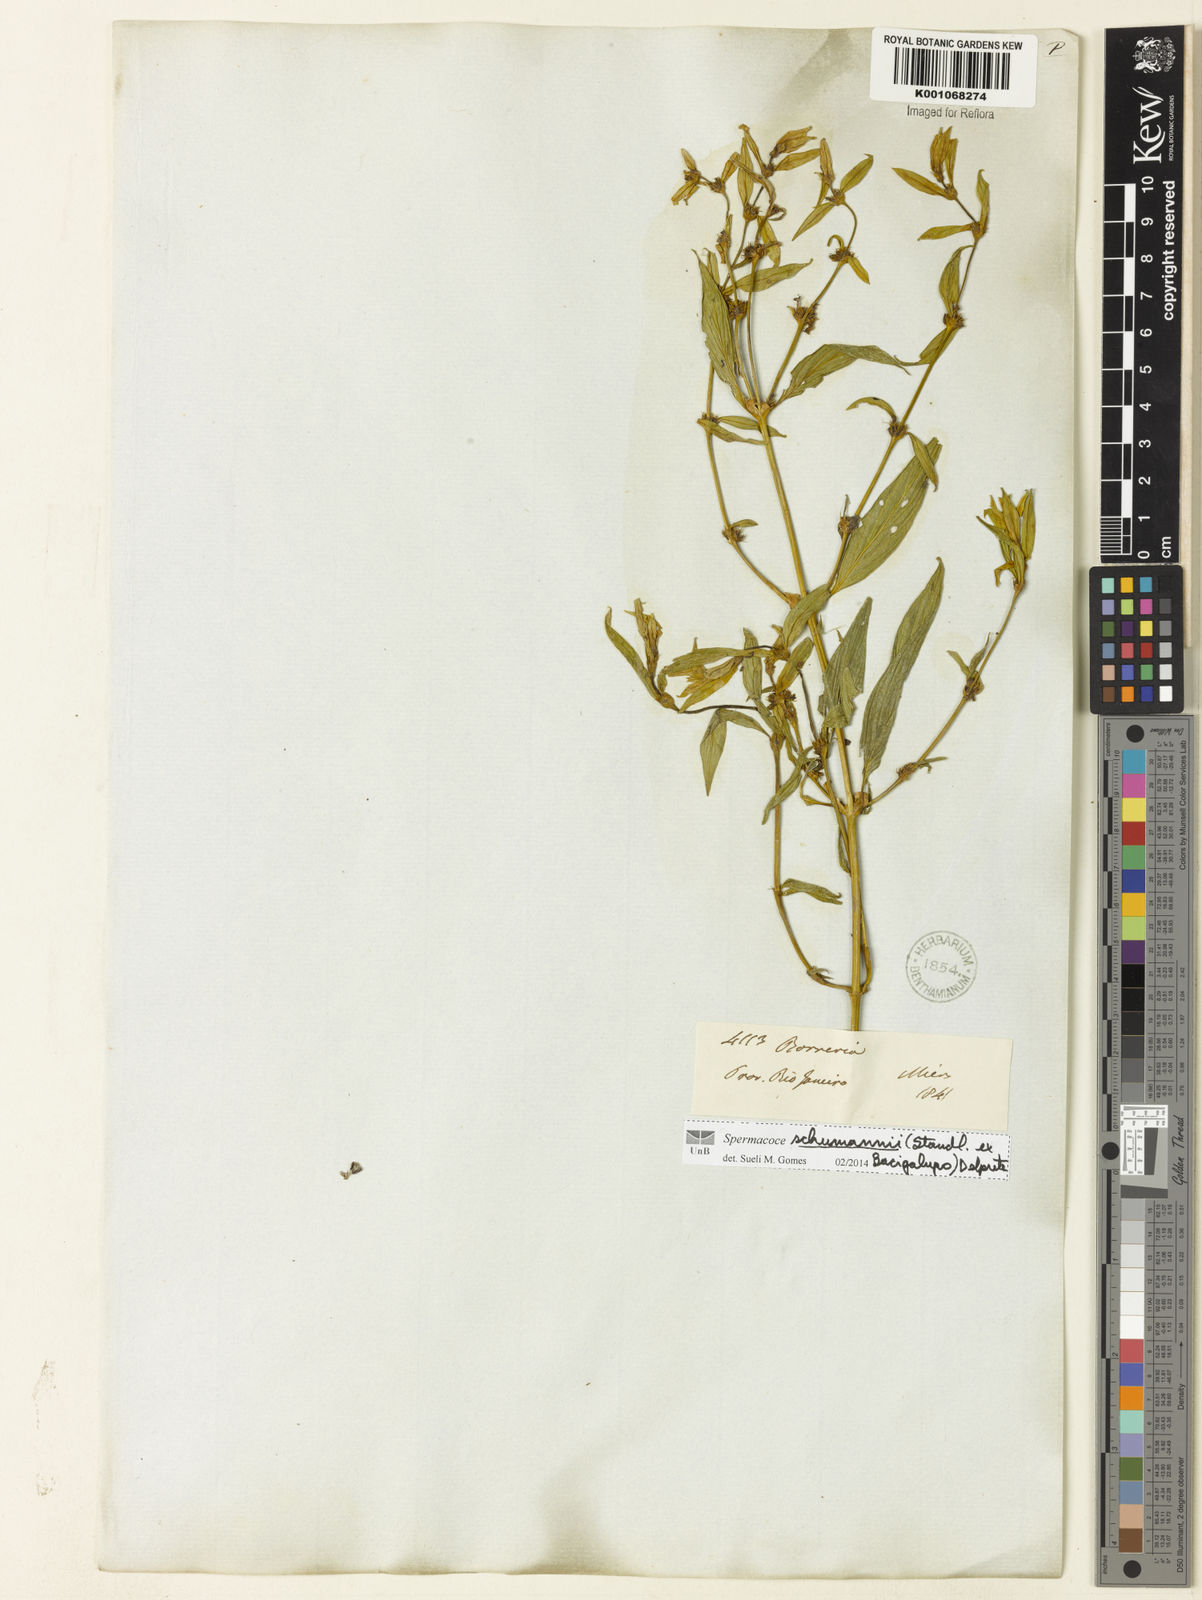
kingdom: Plantae
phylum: Tracheophyta
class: Magnoliopsida
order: Gentianales
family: Rubiaceae
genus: Spermacoce
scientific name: Spermacoce schumannii
